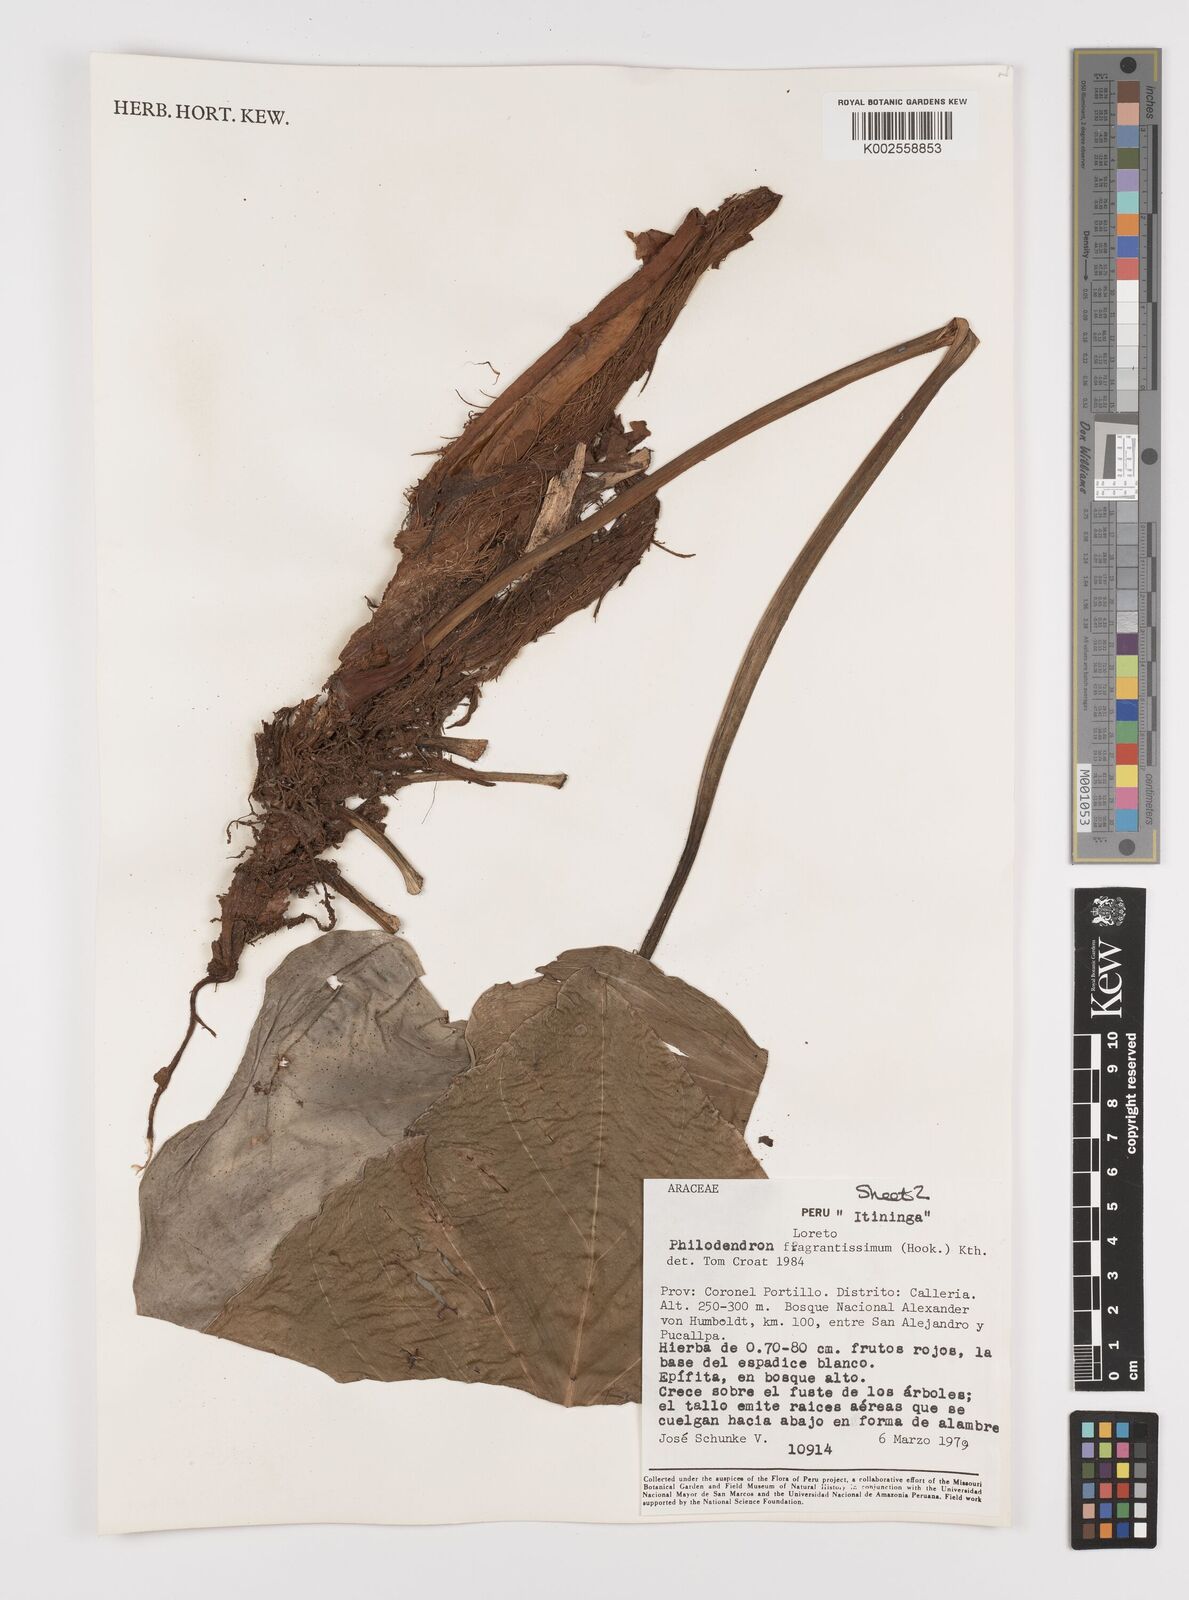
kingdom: Plantae
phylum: Tracheophyta
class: Liliopsida
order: Alismatales
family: Araceae
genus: Philodendron
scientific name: Philodendron fragrantissimum
